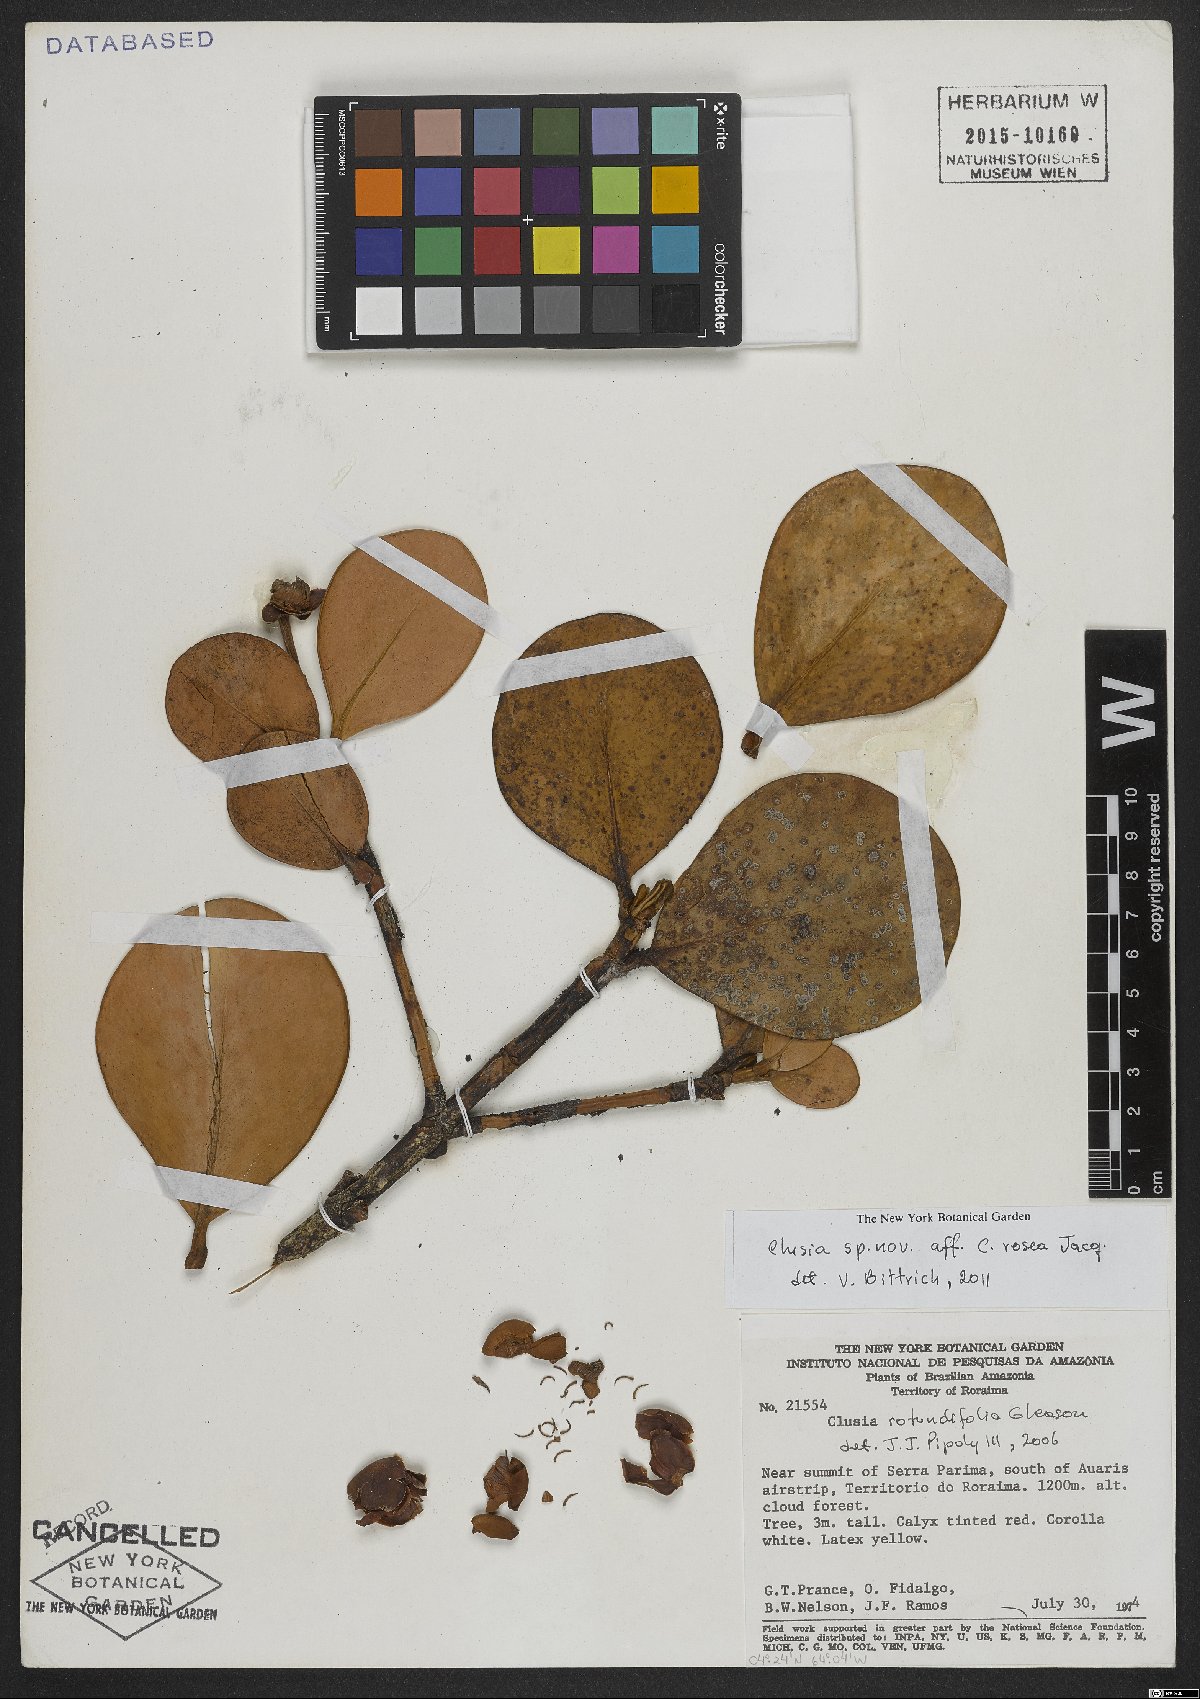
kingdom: Plantae
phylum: Tracheophyta
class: Magnoliopsida
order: Malpighiales
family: Clusiaceae
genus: Clusia
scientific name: Clusia
